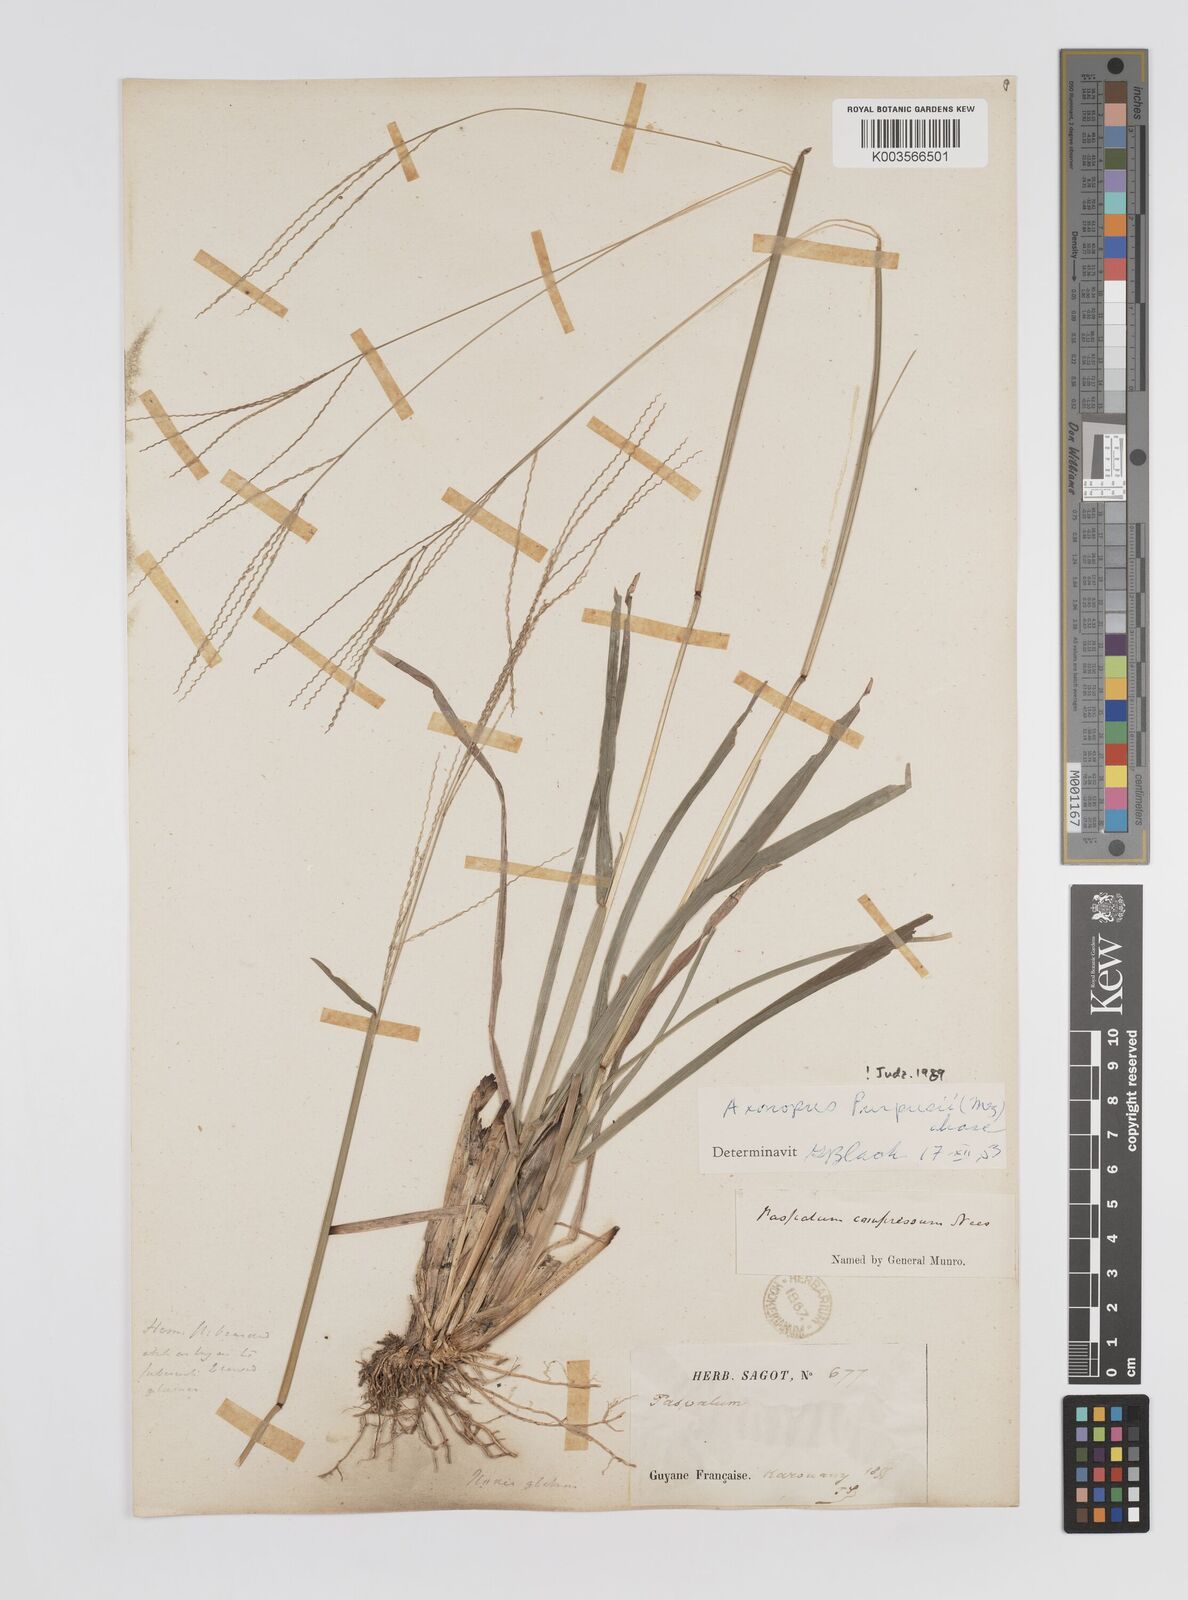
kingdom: Plantae
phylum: Tracheophyta
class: Liliopsida
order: Poales
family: Poaceae
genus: Axonopus
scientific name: Axonopus purpusii
